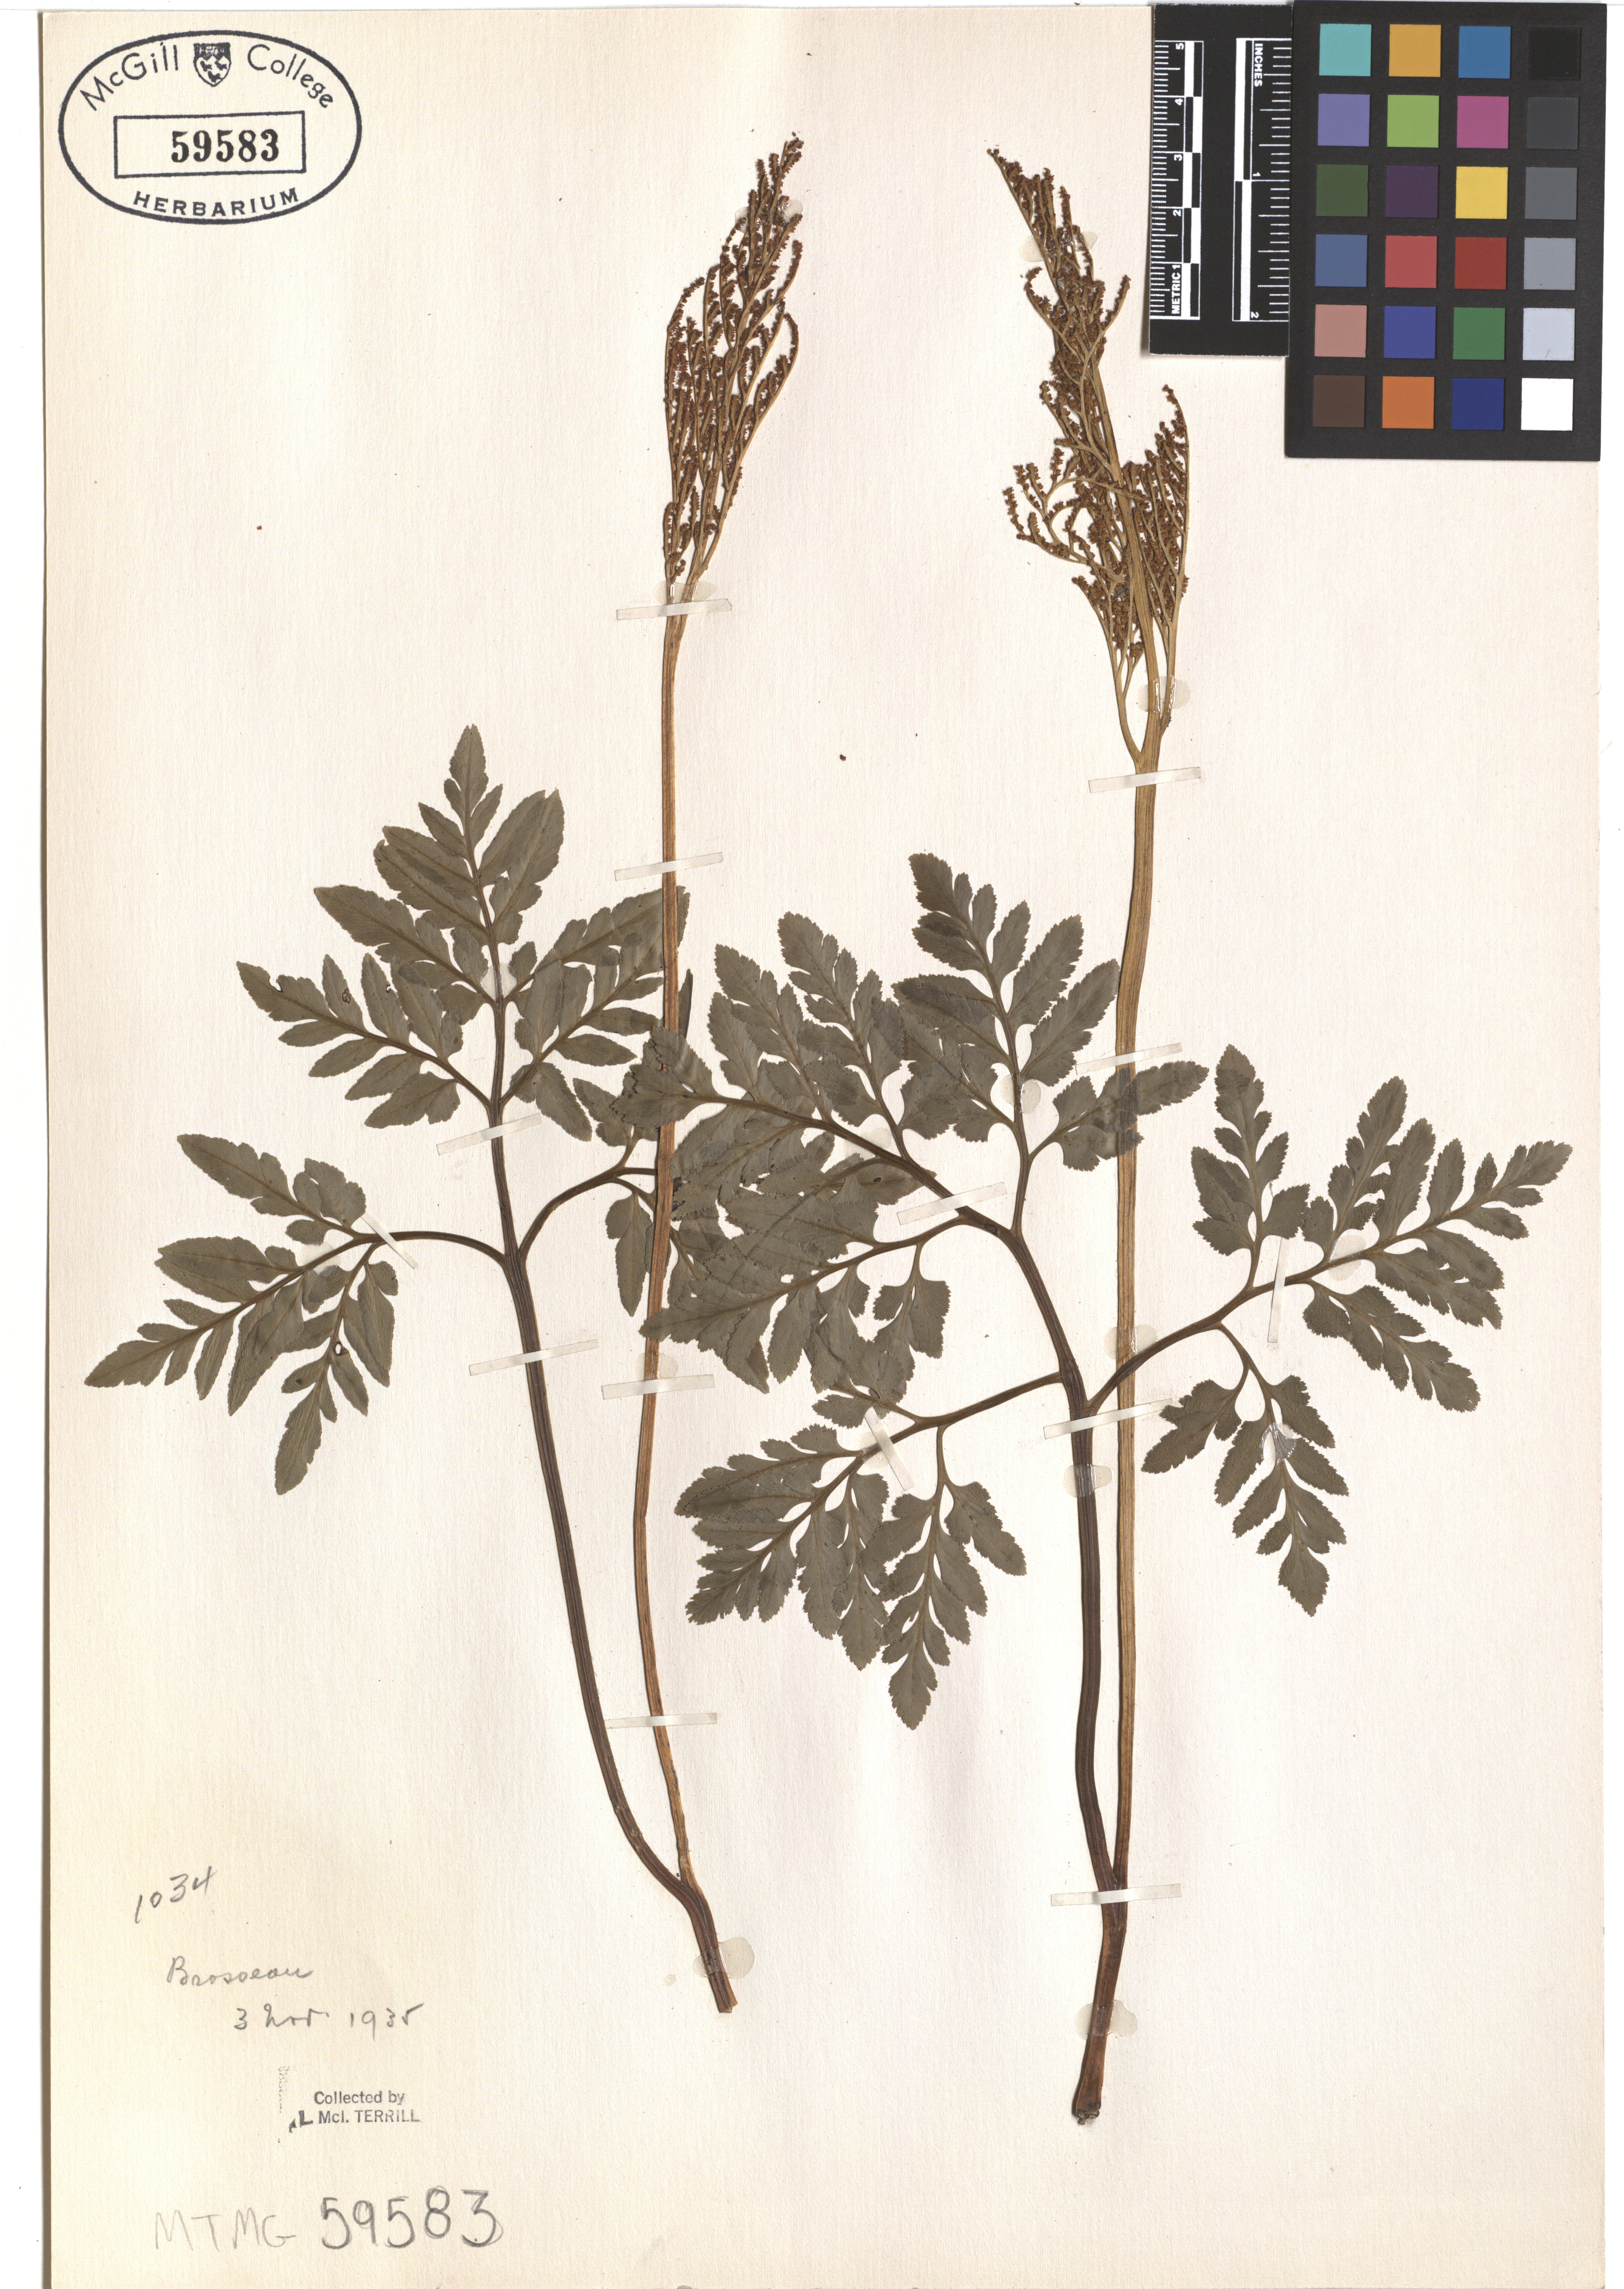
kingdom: Plantae
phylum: Tracheophyta
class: Polypodiopsida
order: Ophioglossales
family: Ophioglossaceae
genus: Sceptridium
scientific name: Sceptridium dissectum
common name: Cut-leaved grapefern
